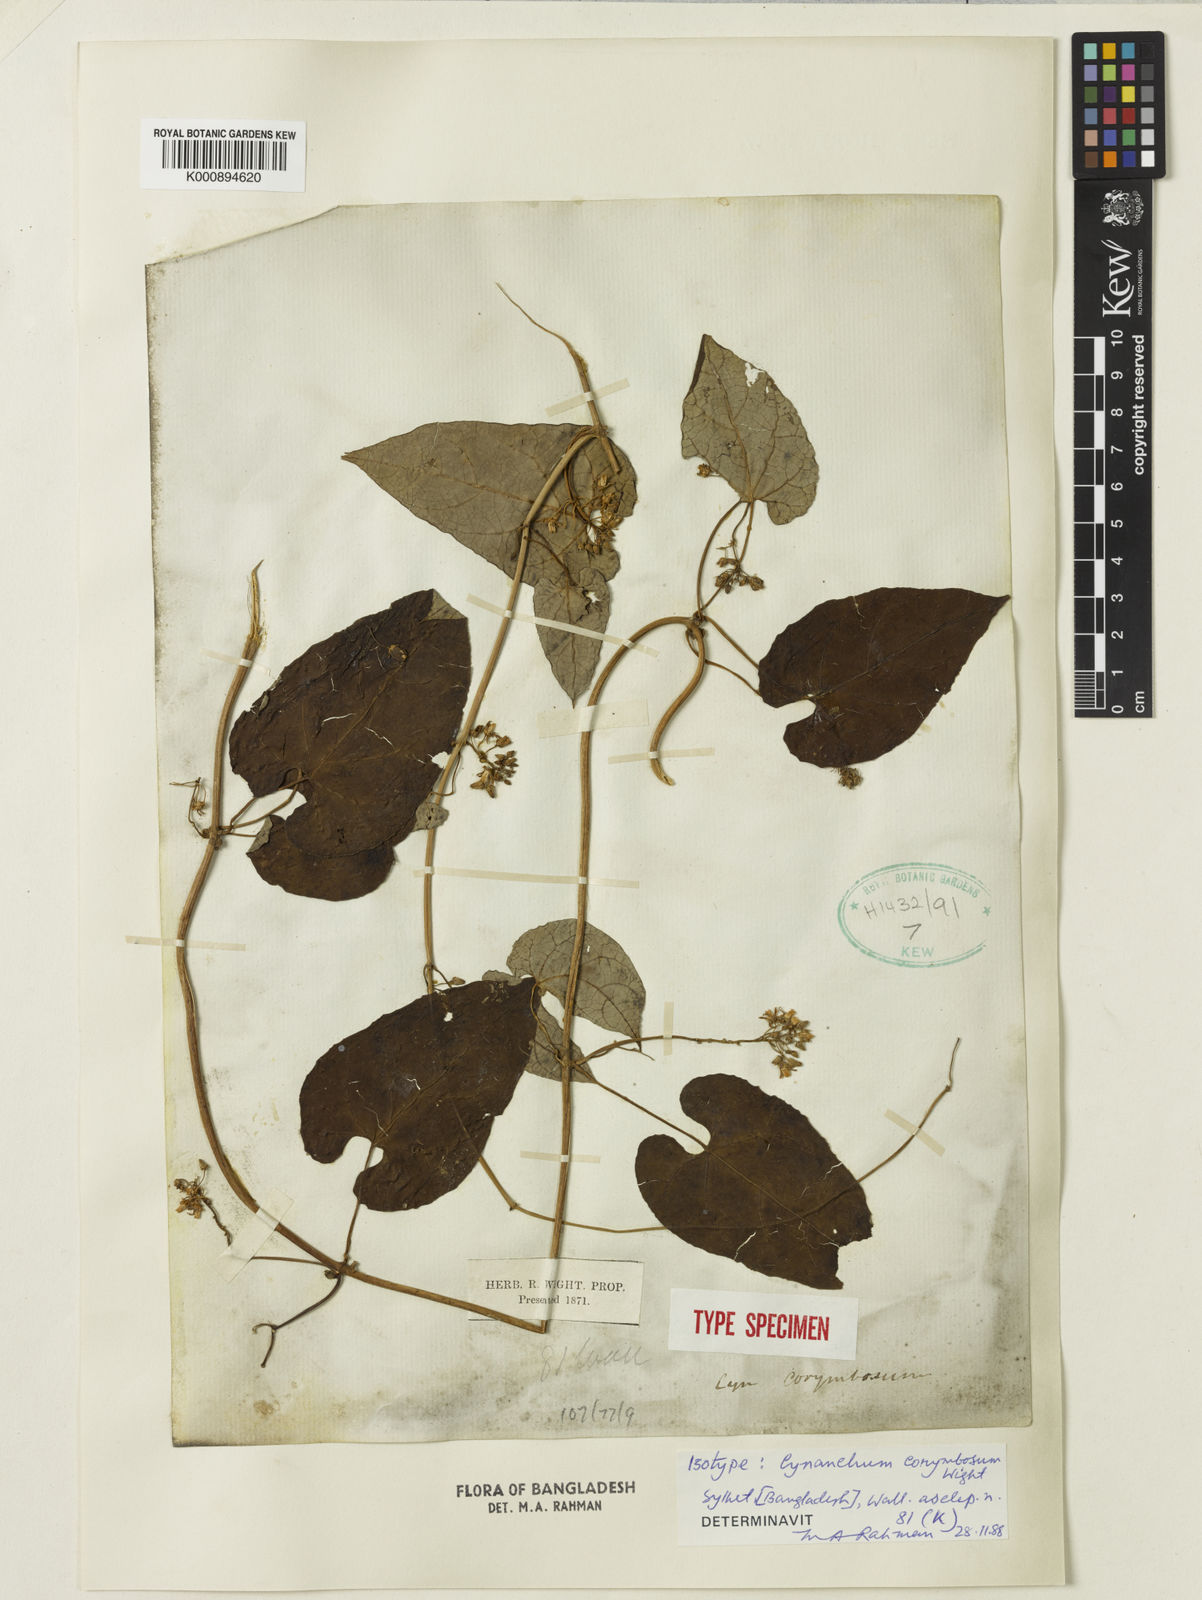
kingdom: Plantae
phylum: Tracheophyta
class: Magnoliopsida
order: Gentianales
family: Apocynaceae
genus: Cynanchum
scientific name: Cynanchum corymbosum
